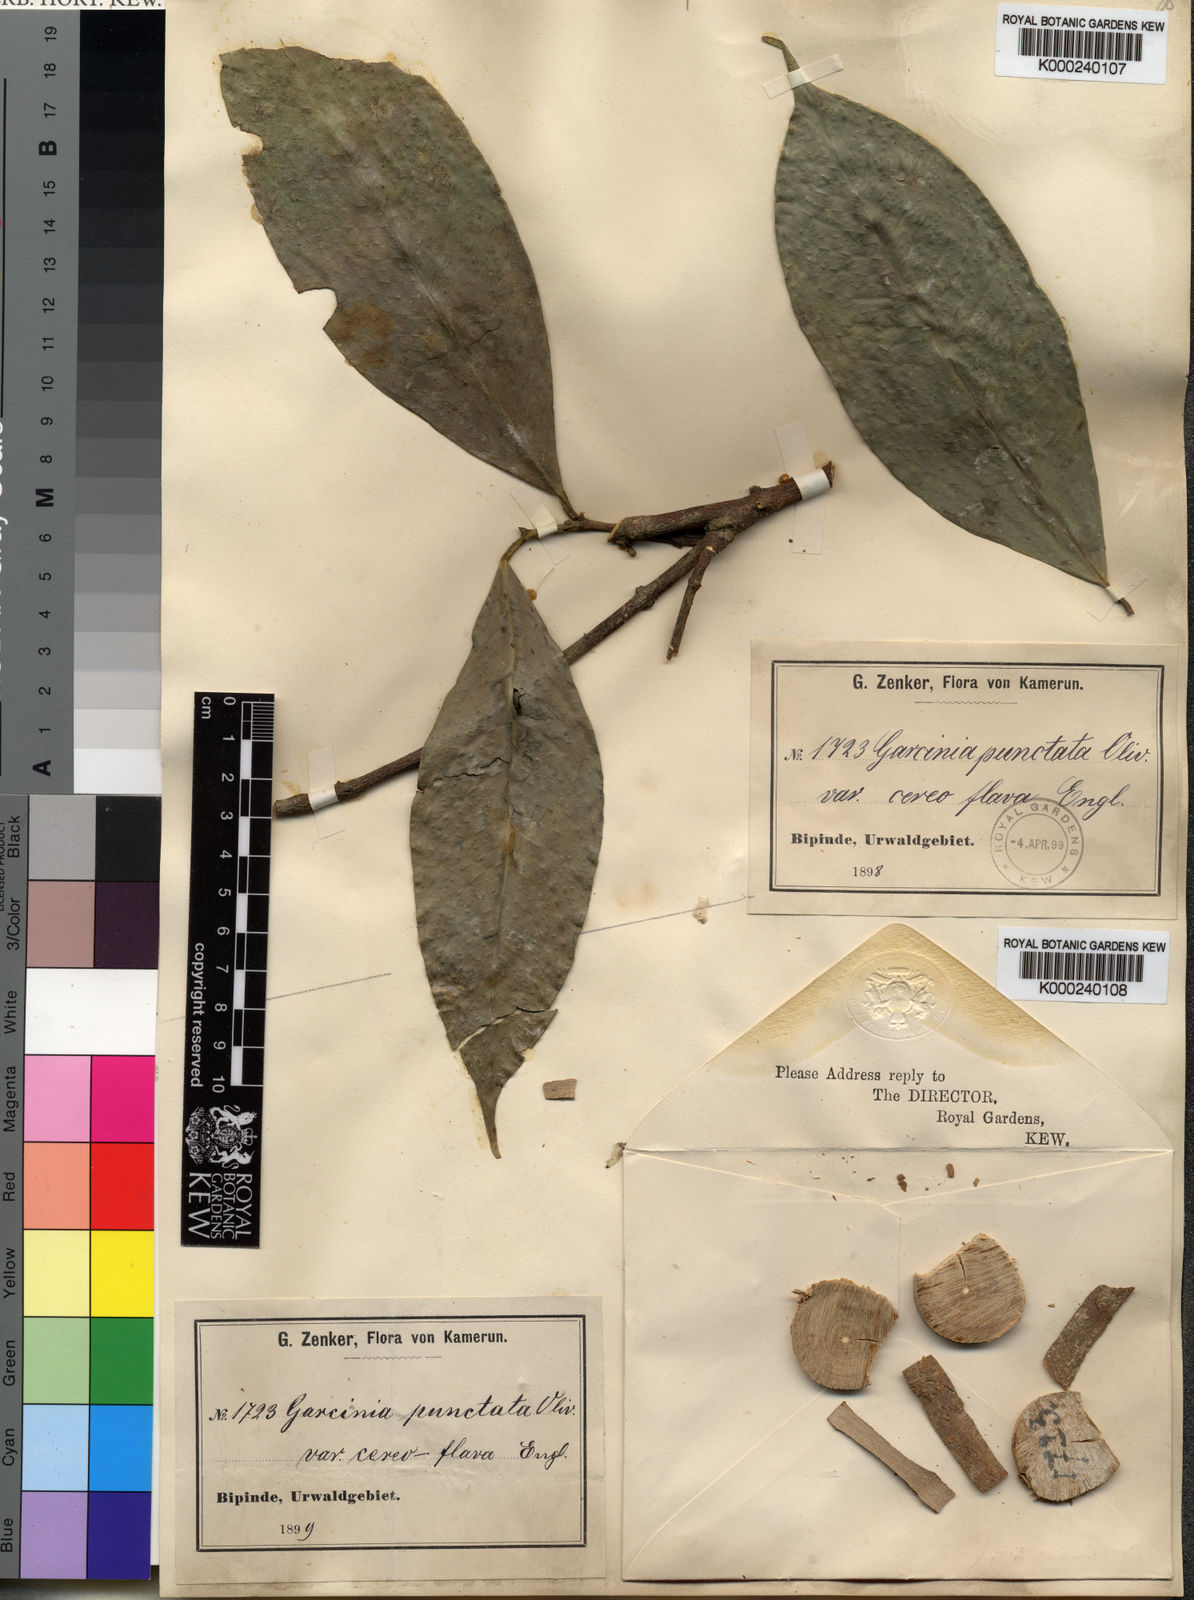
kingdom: Plantae
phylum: Tracheophyta
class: Magnoliopsida
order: Malpighiales
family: Clusiaceae
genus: Garcinia
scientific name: Garcinia epunctata
